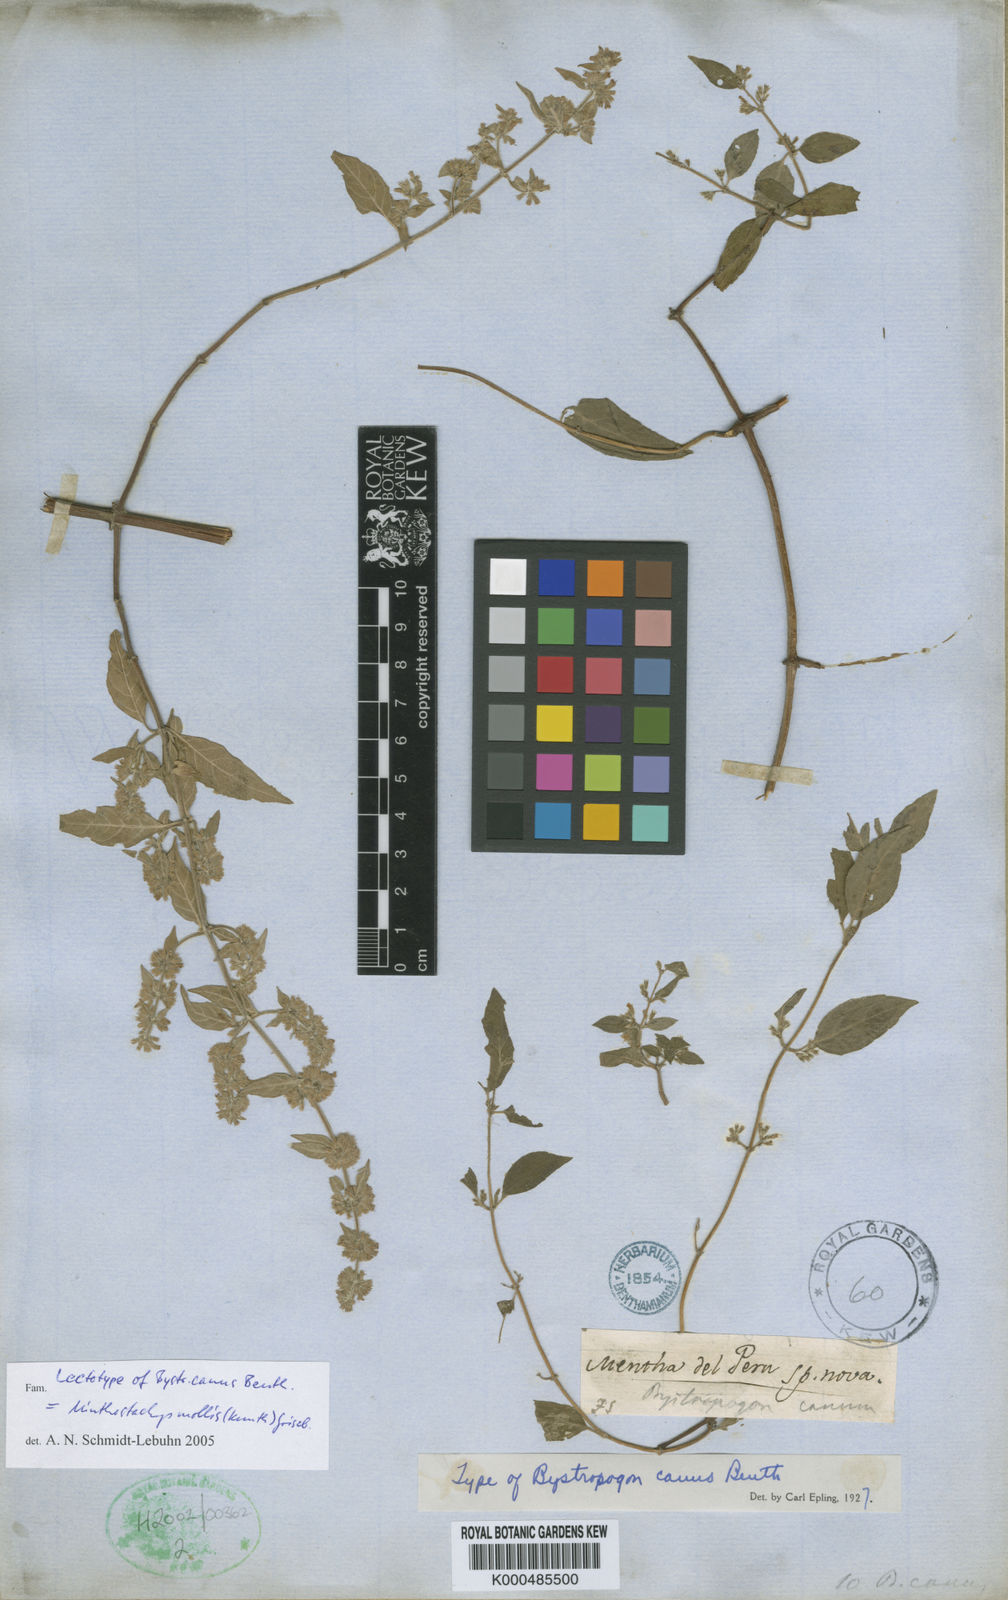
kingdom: Plantae
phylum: Tracheophyta
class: Magnoliopsida
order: Lamiales
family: Lamiaceae
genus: Minthostachys
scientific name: Minthostachys mollis
